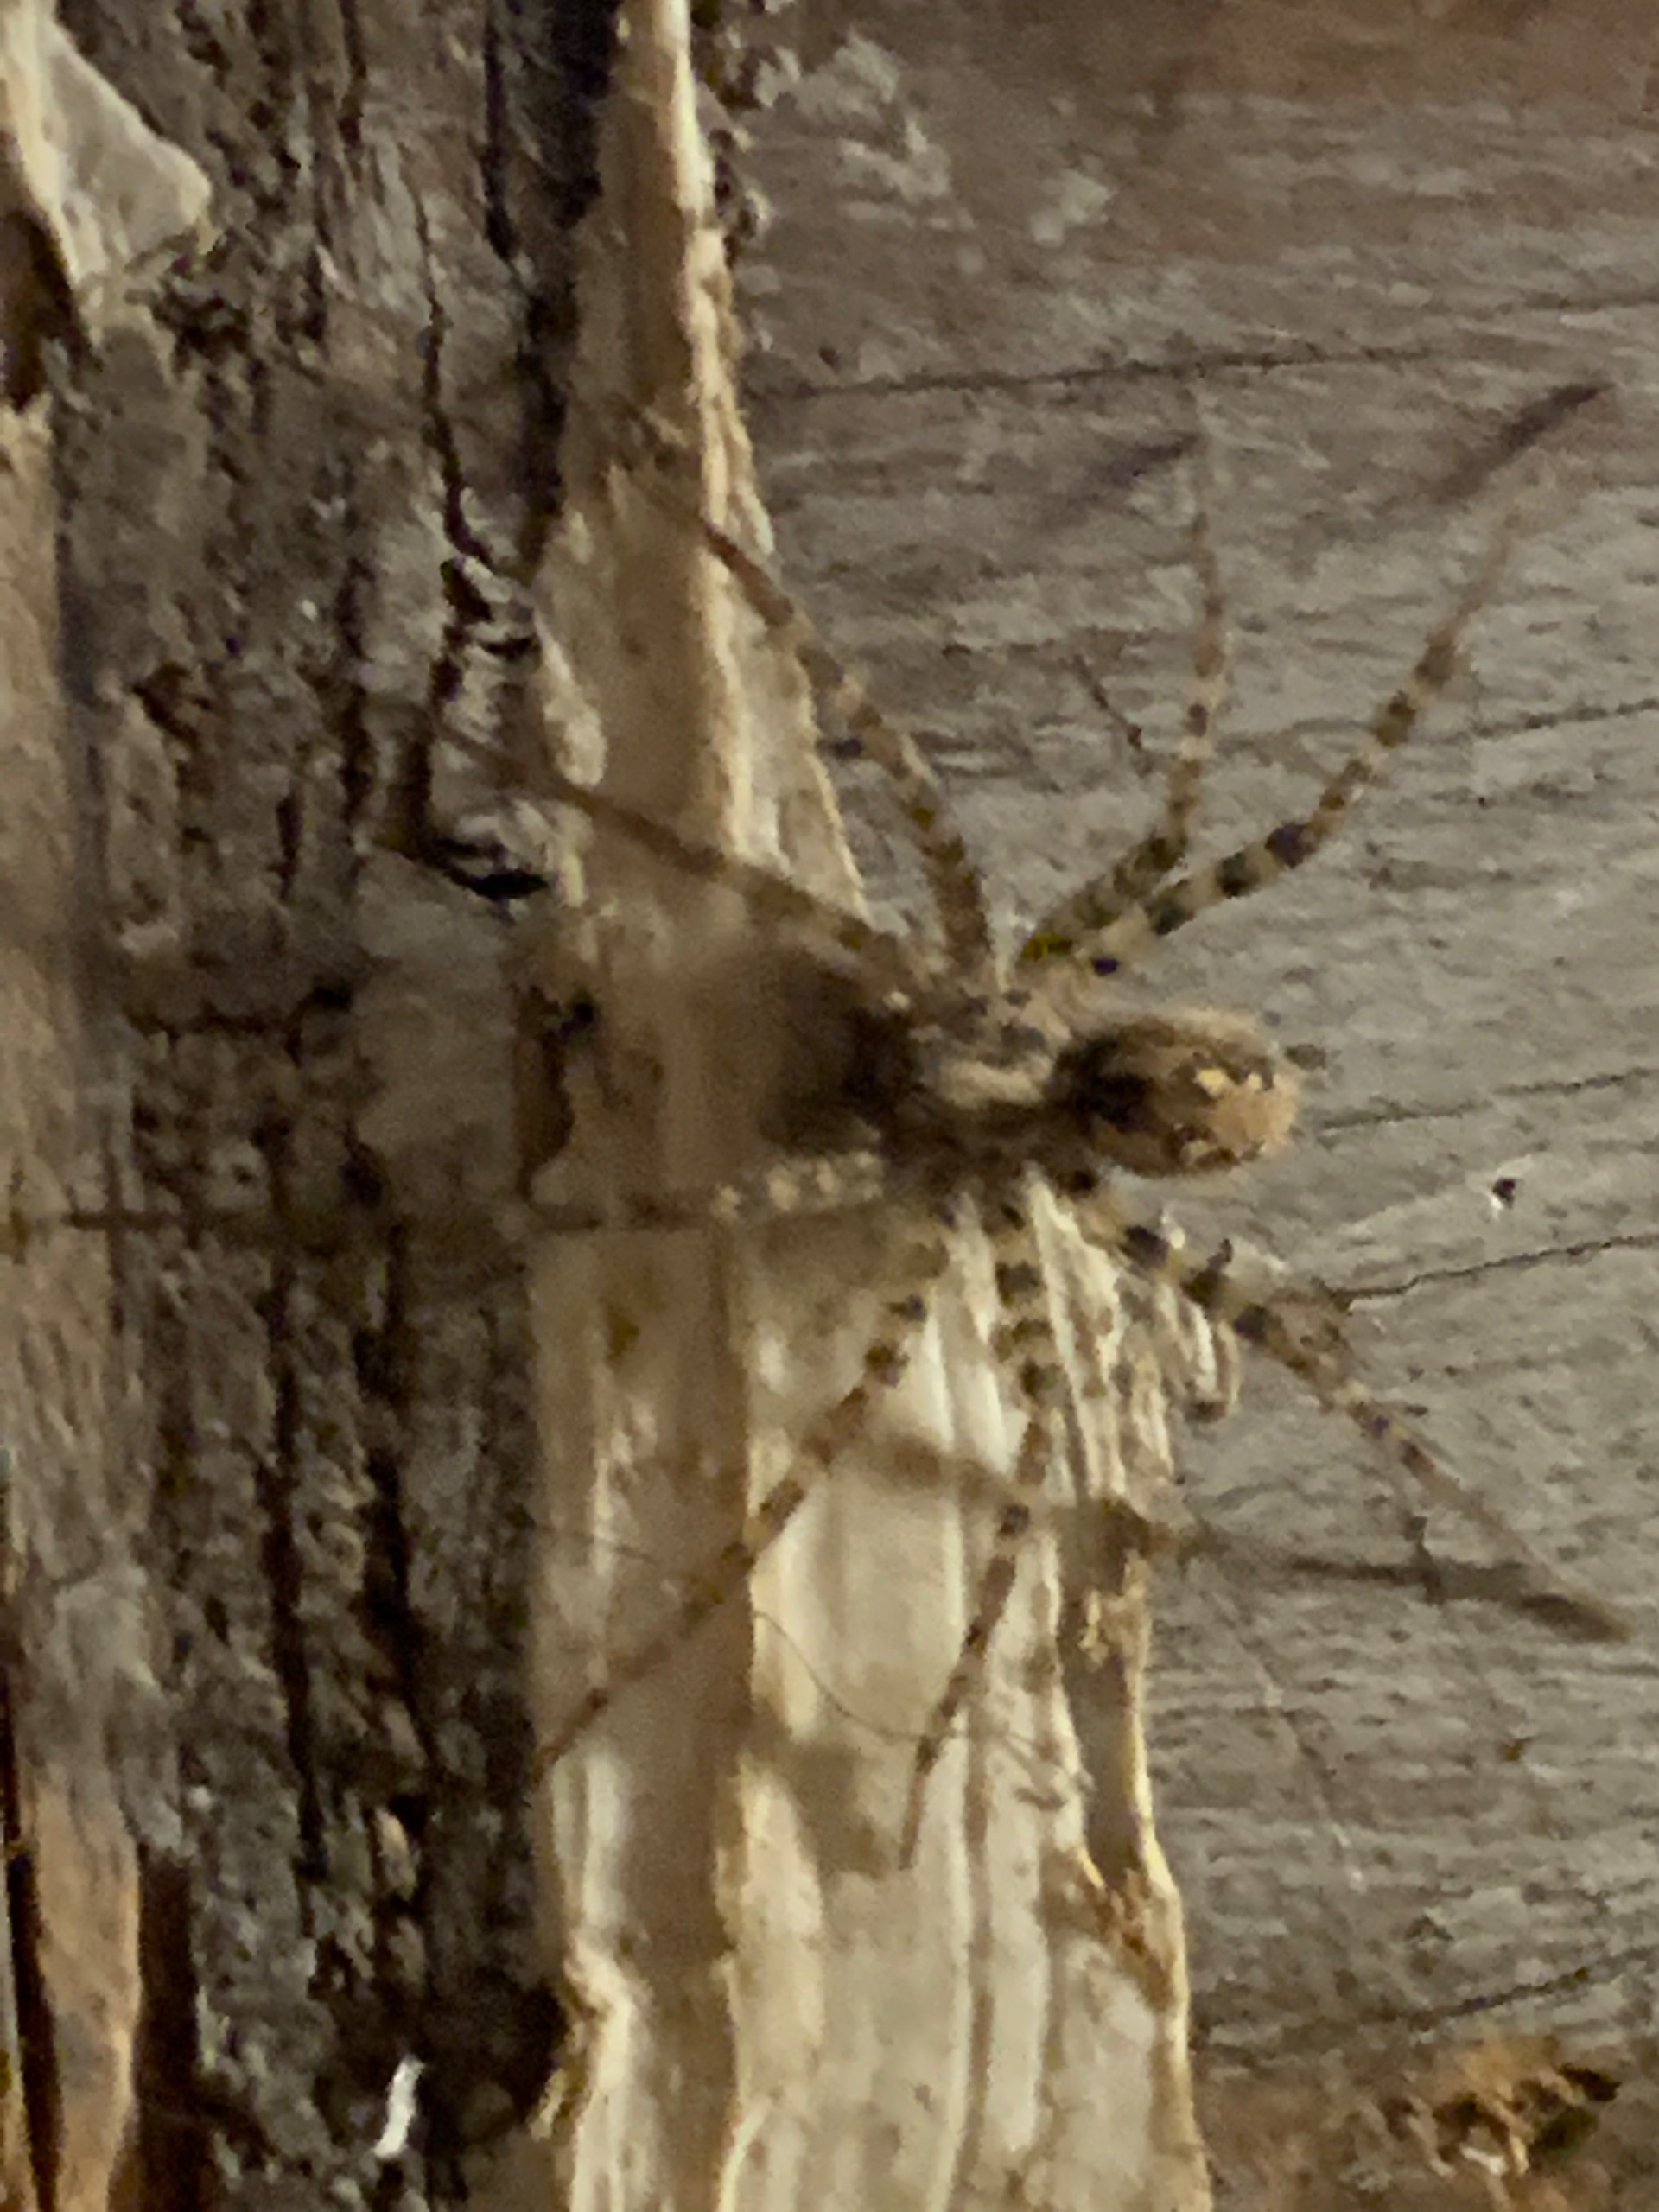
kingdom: Animalia
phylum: Arthropoda
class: Arachnida
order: Araneae
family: Agelenidae
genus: Tegenaria
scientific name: Tegenaria ferruginea
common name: Rustrød husedderkop
